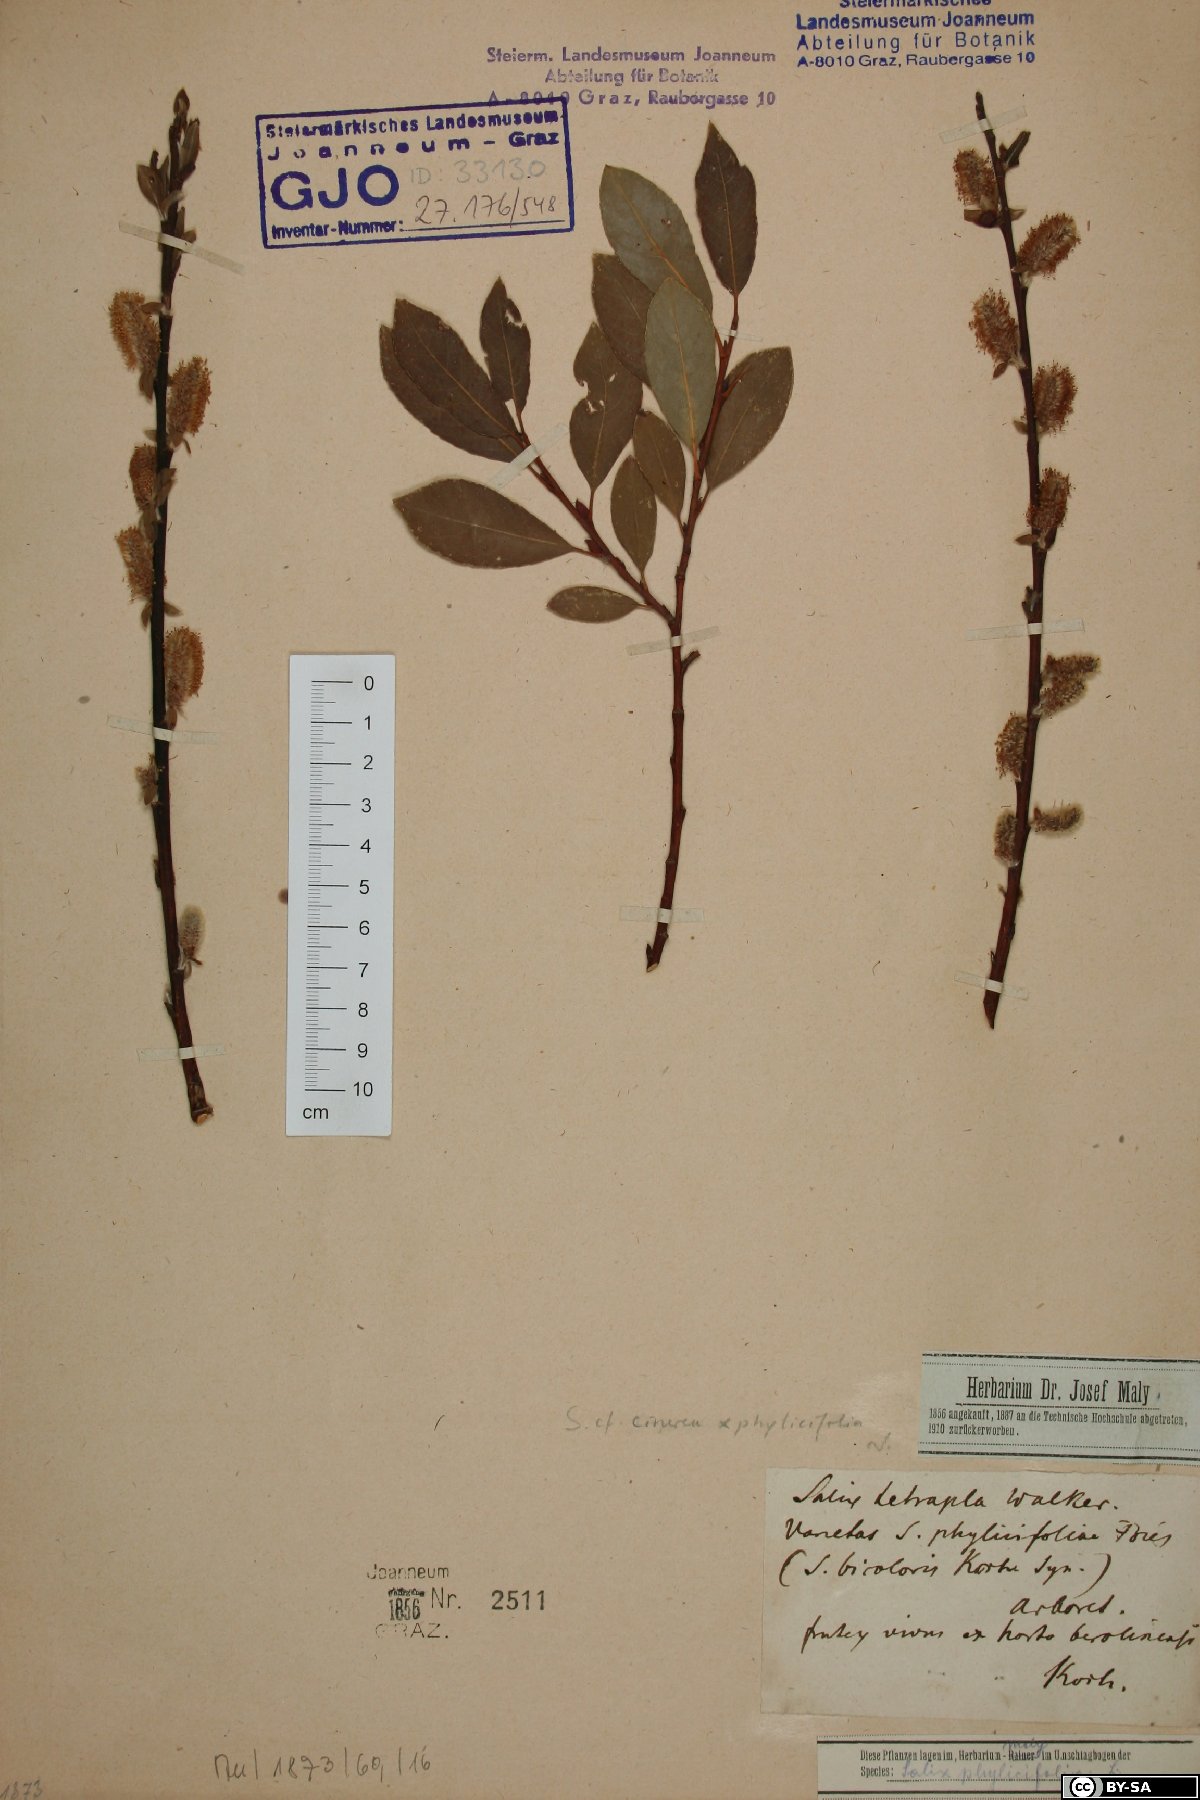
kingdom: Plantae
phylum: Tracheophyta
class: Magnoliopsida
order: Malpighiales
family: Salicaceae
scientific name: Salicaceae
